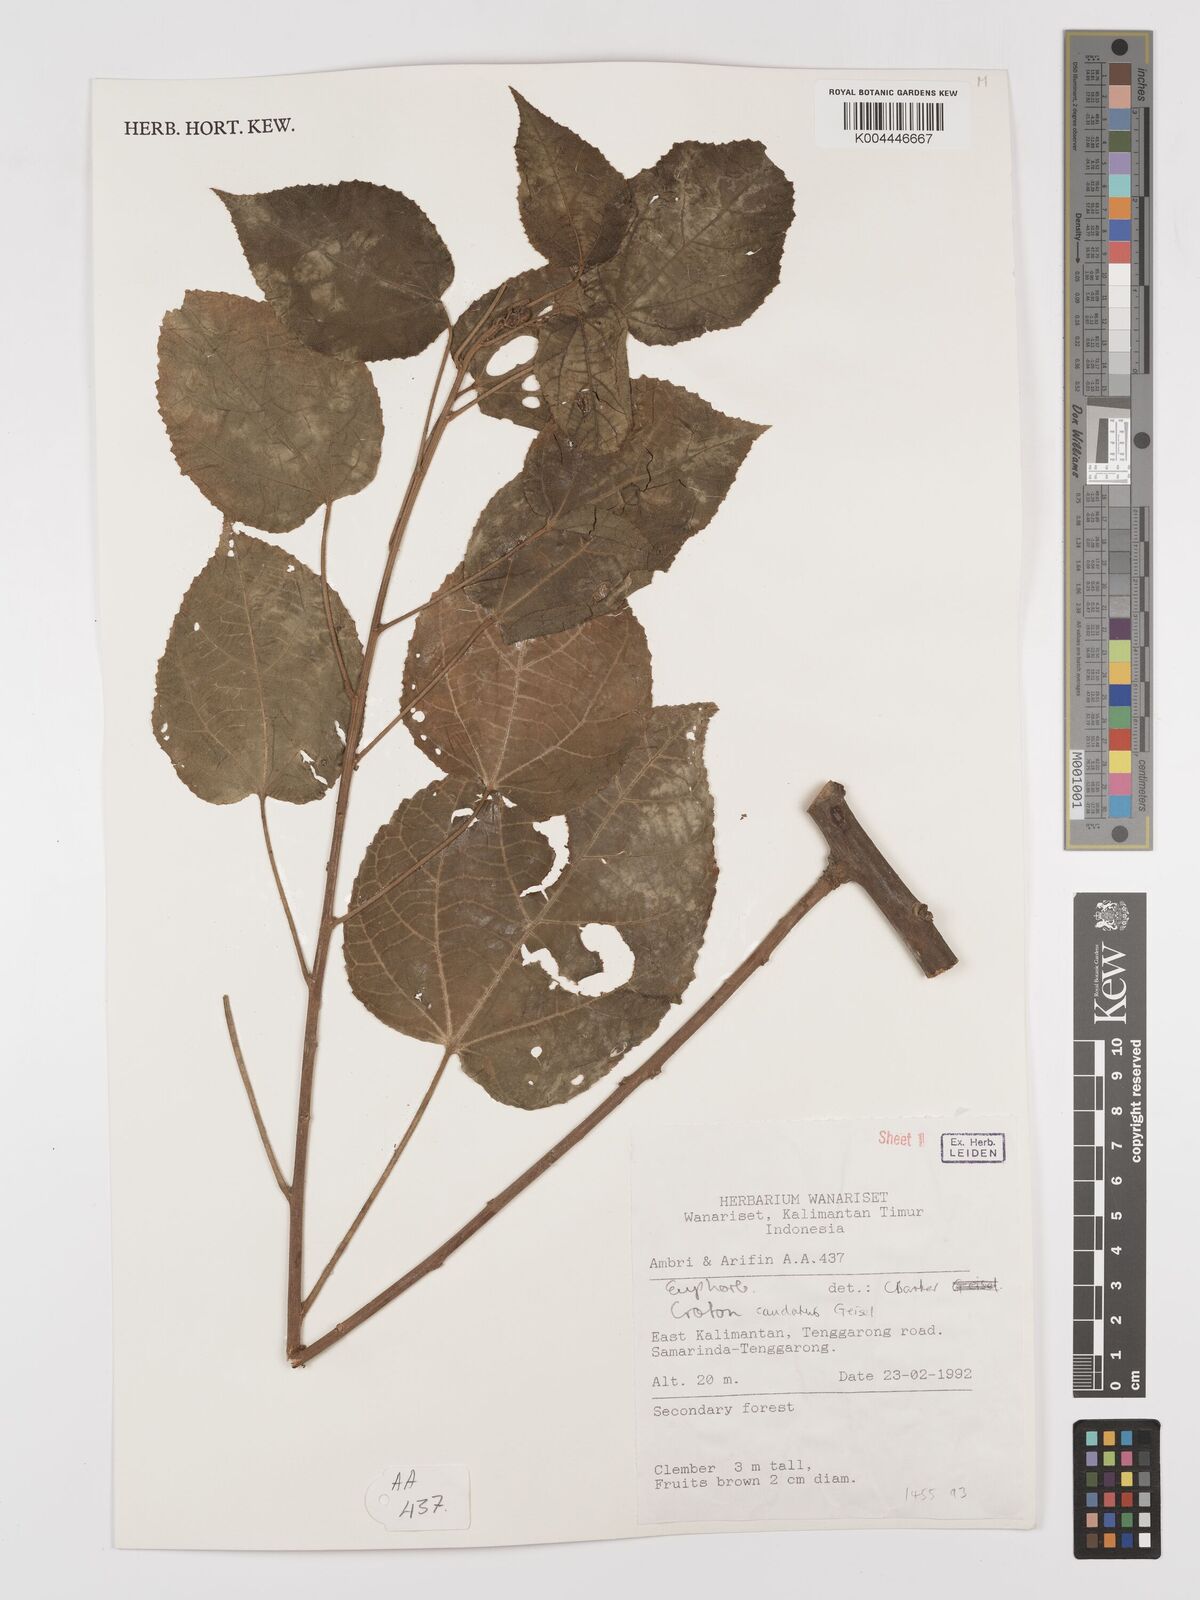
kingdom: Plantae
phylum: Tracheophyta
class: Magnoliopsida
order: Malpighiales
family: Euphorbiaceae
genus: Croton
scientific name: Croton caudatus
